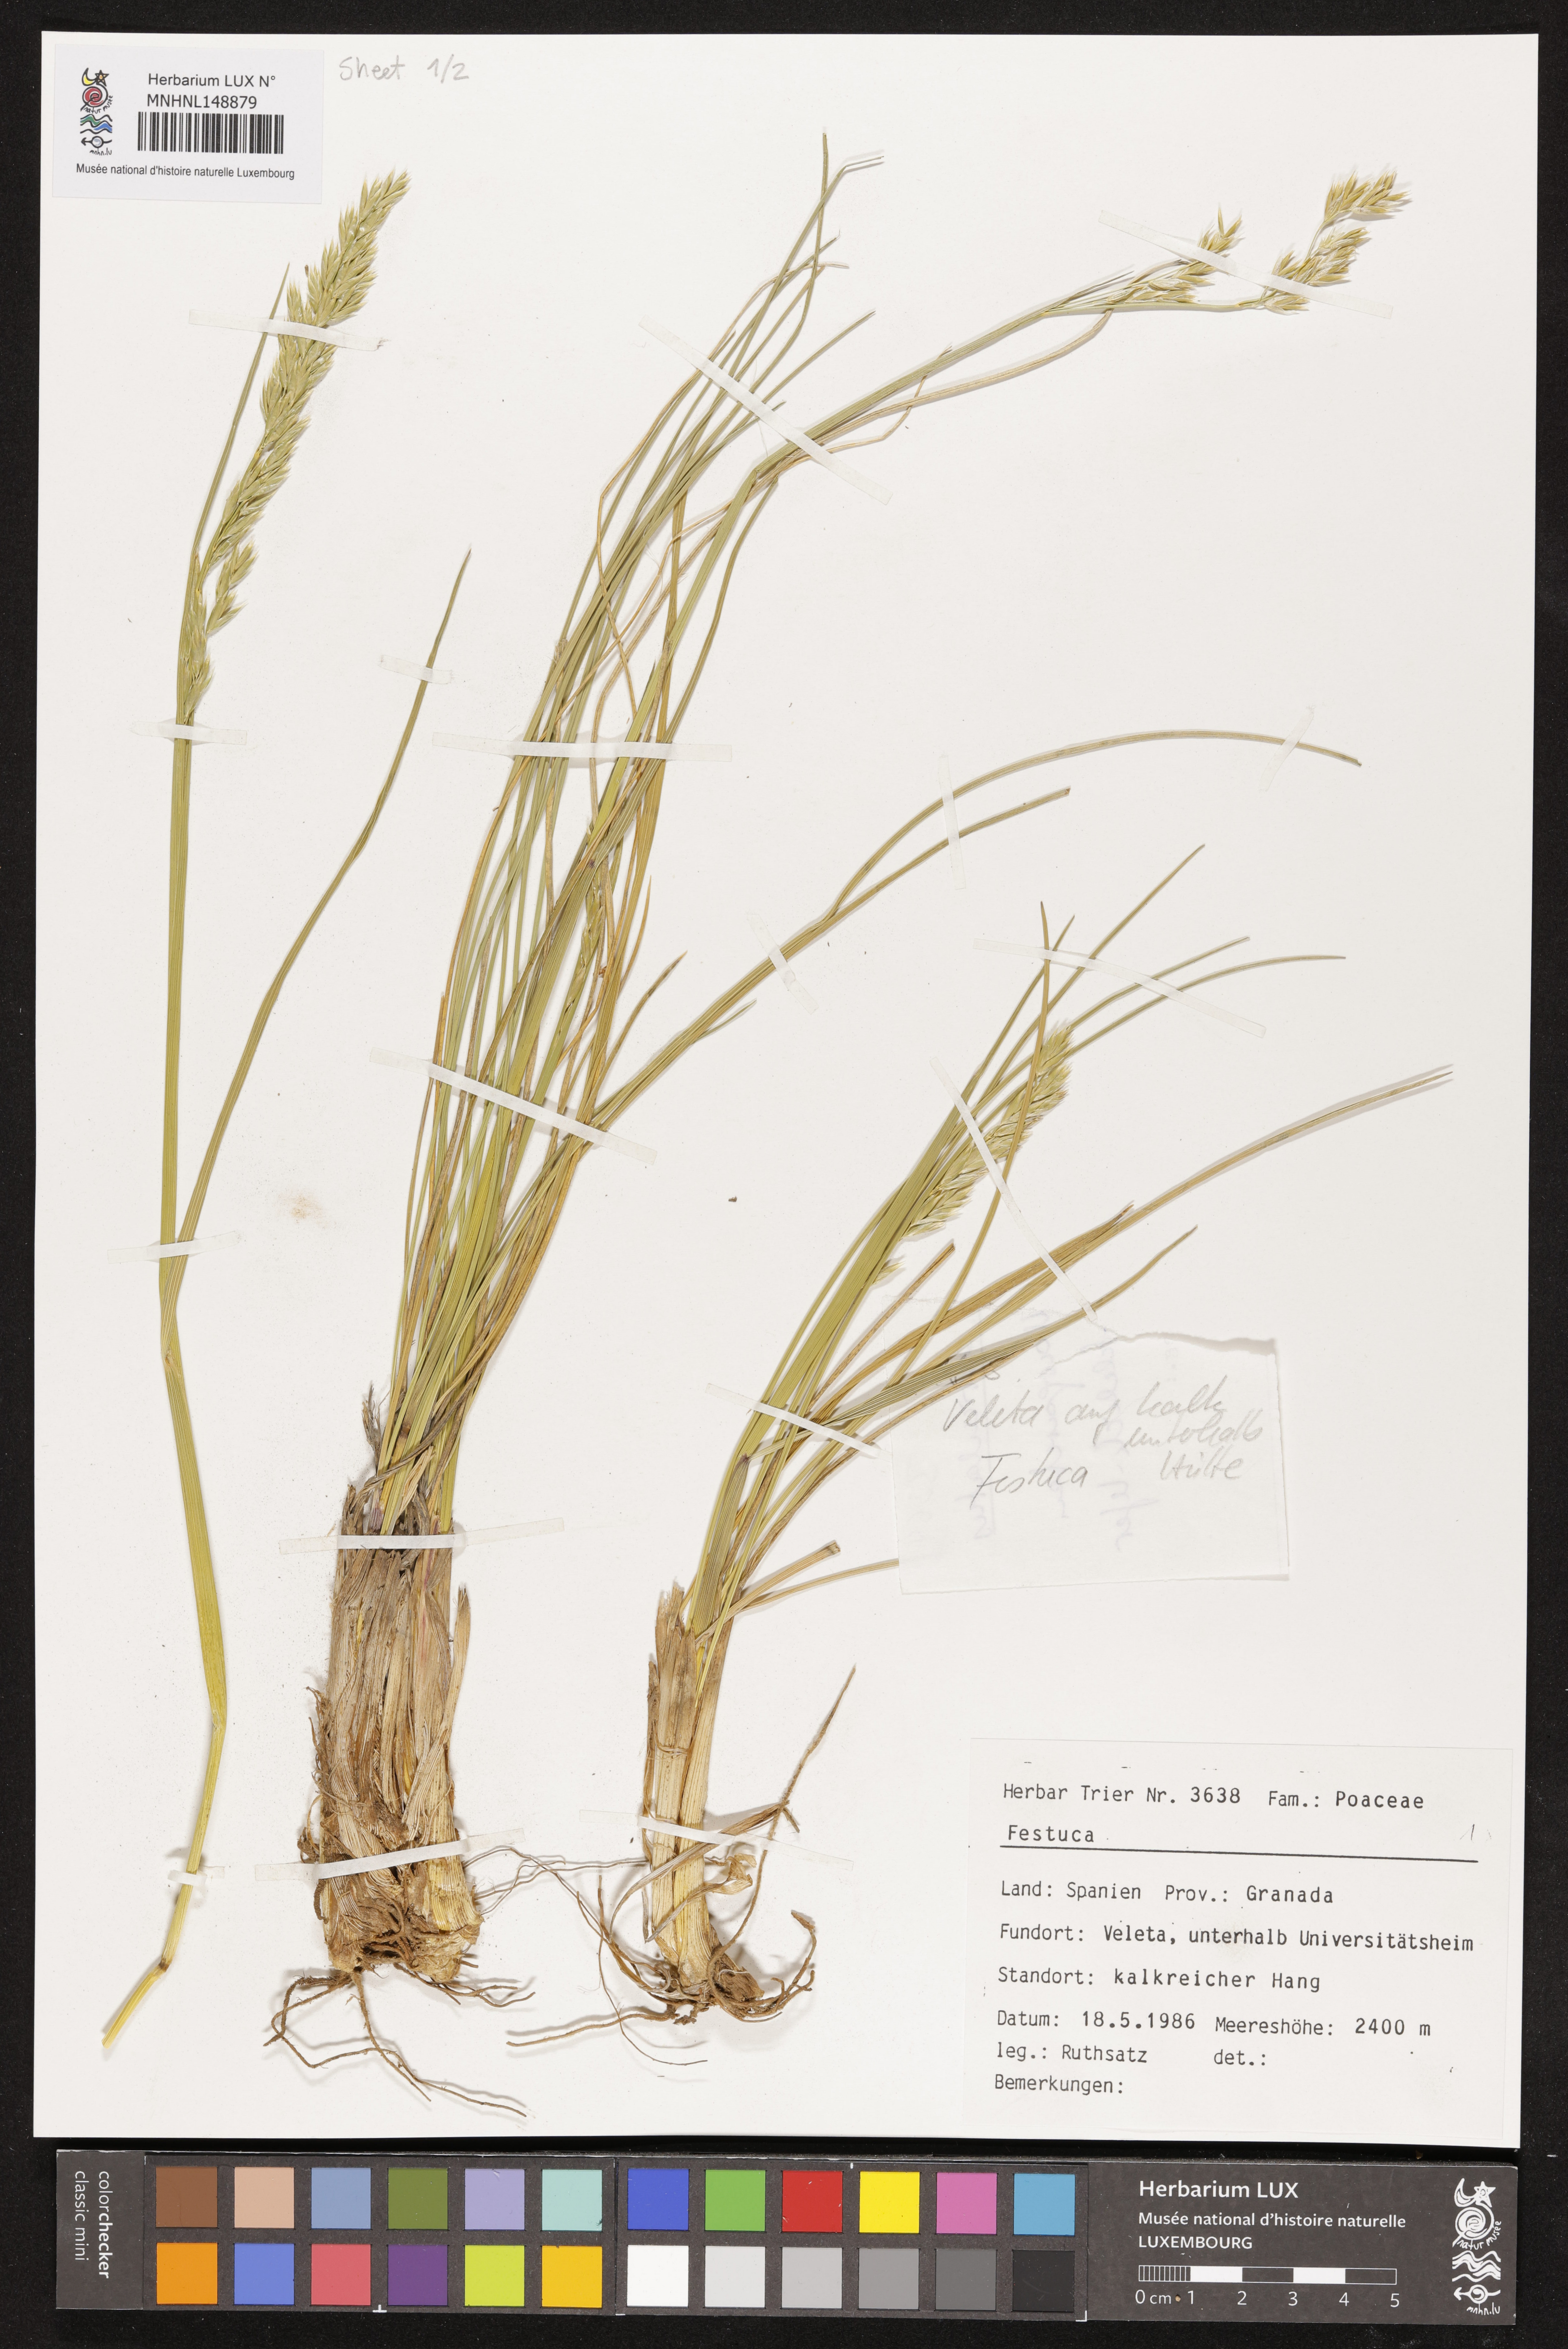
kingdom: Plantae
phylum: Tracheophyta
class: Liliopsida
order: Poales
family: Poaceae
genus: Festuca
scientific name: Festuca
